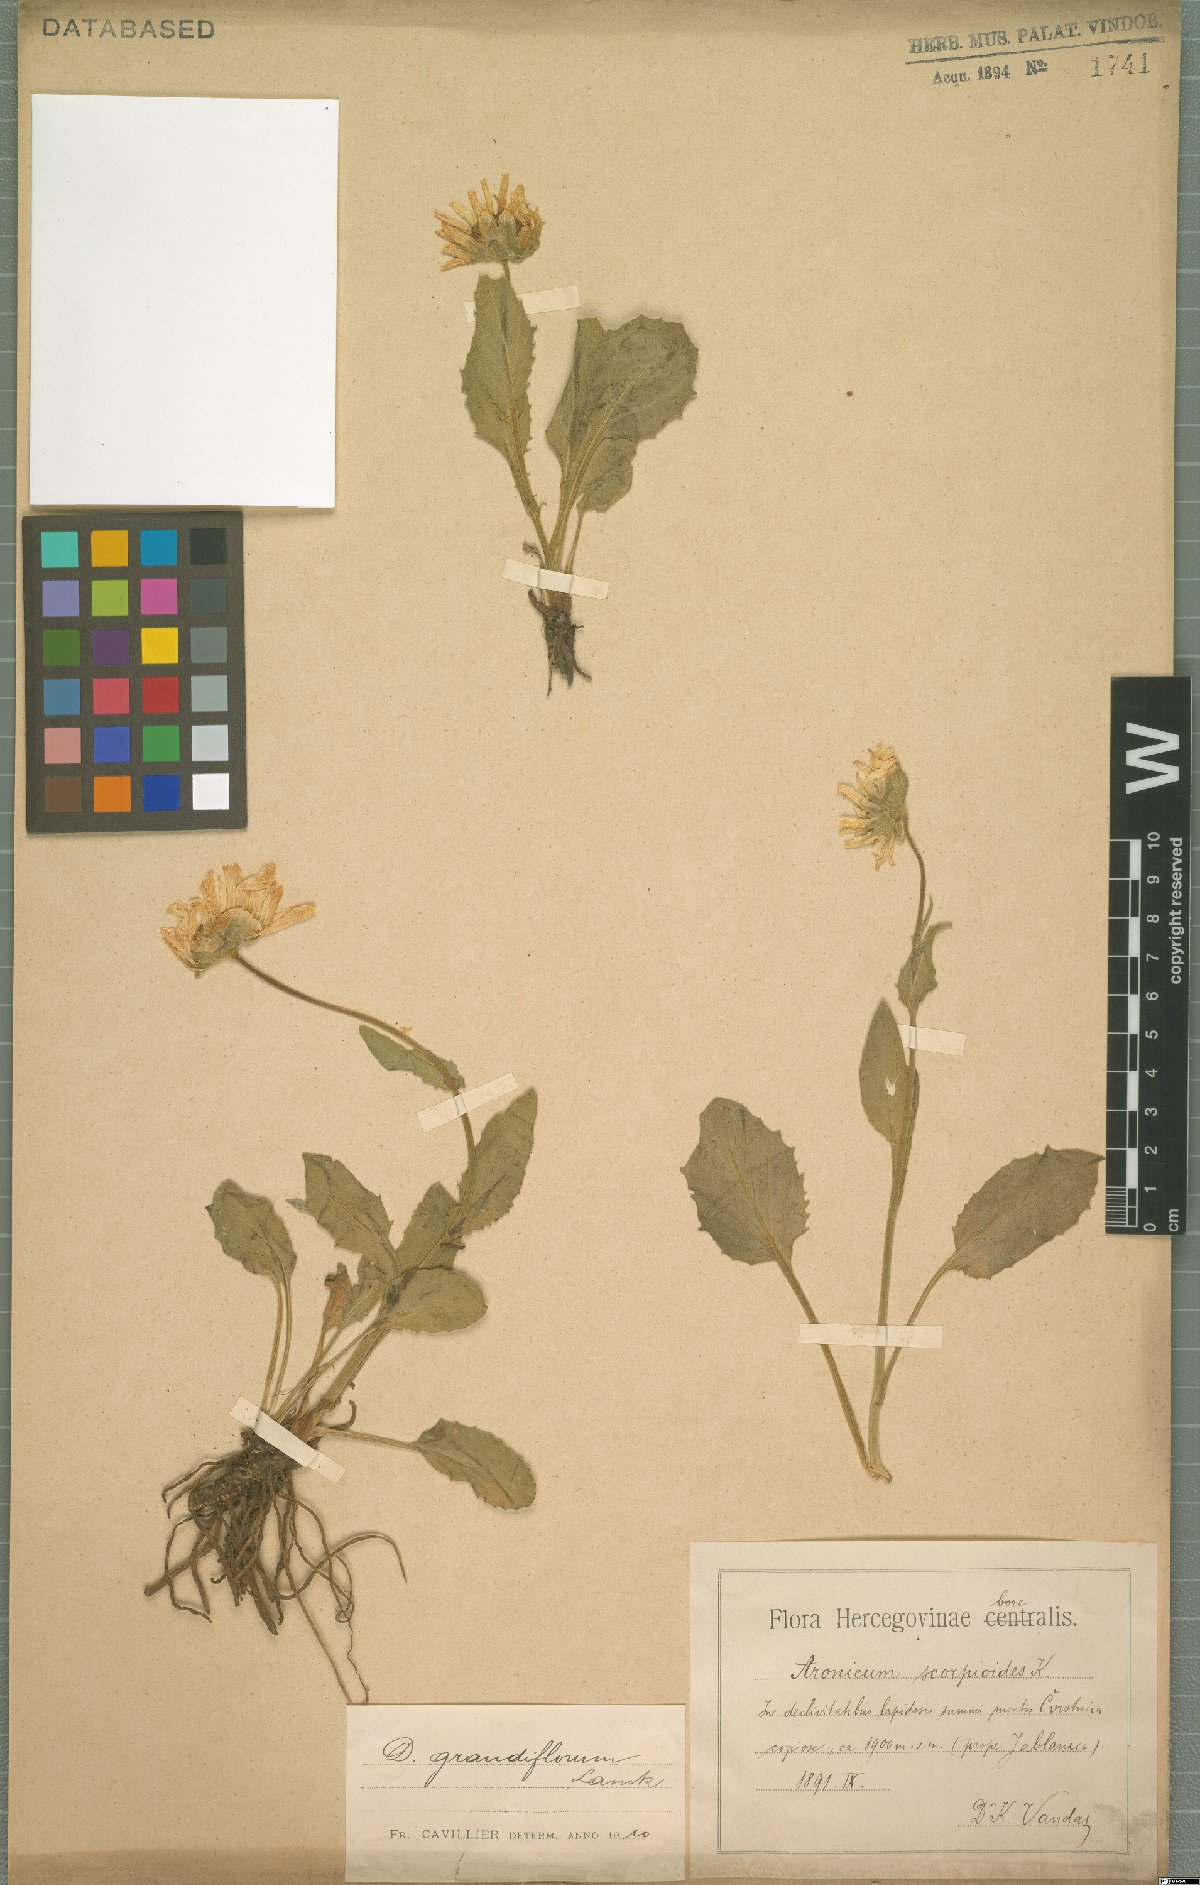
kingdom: Plantae
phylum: Tracheophyta
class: Magnoliopsida
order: Asterales
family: Asteraceae
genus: Doronicum
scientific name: Doronicum grandiflorum
